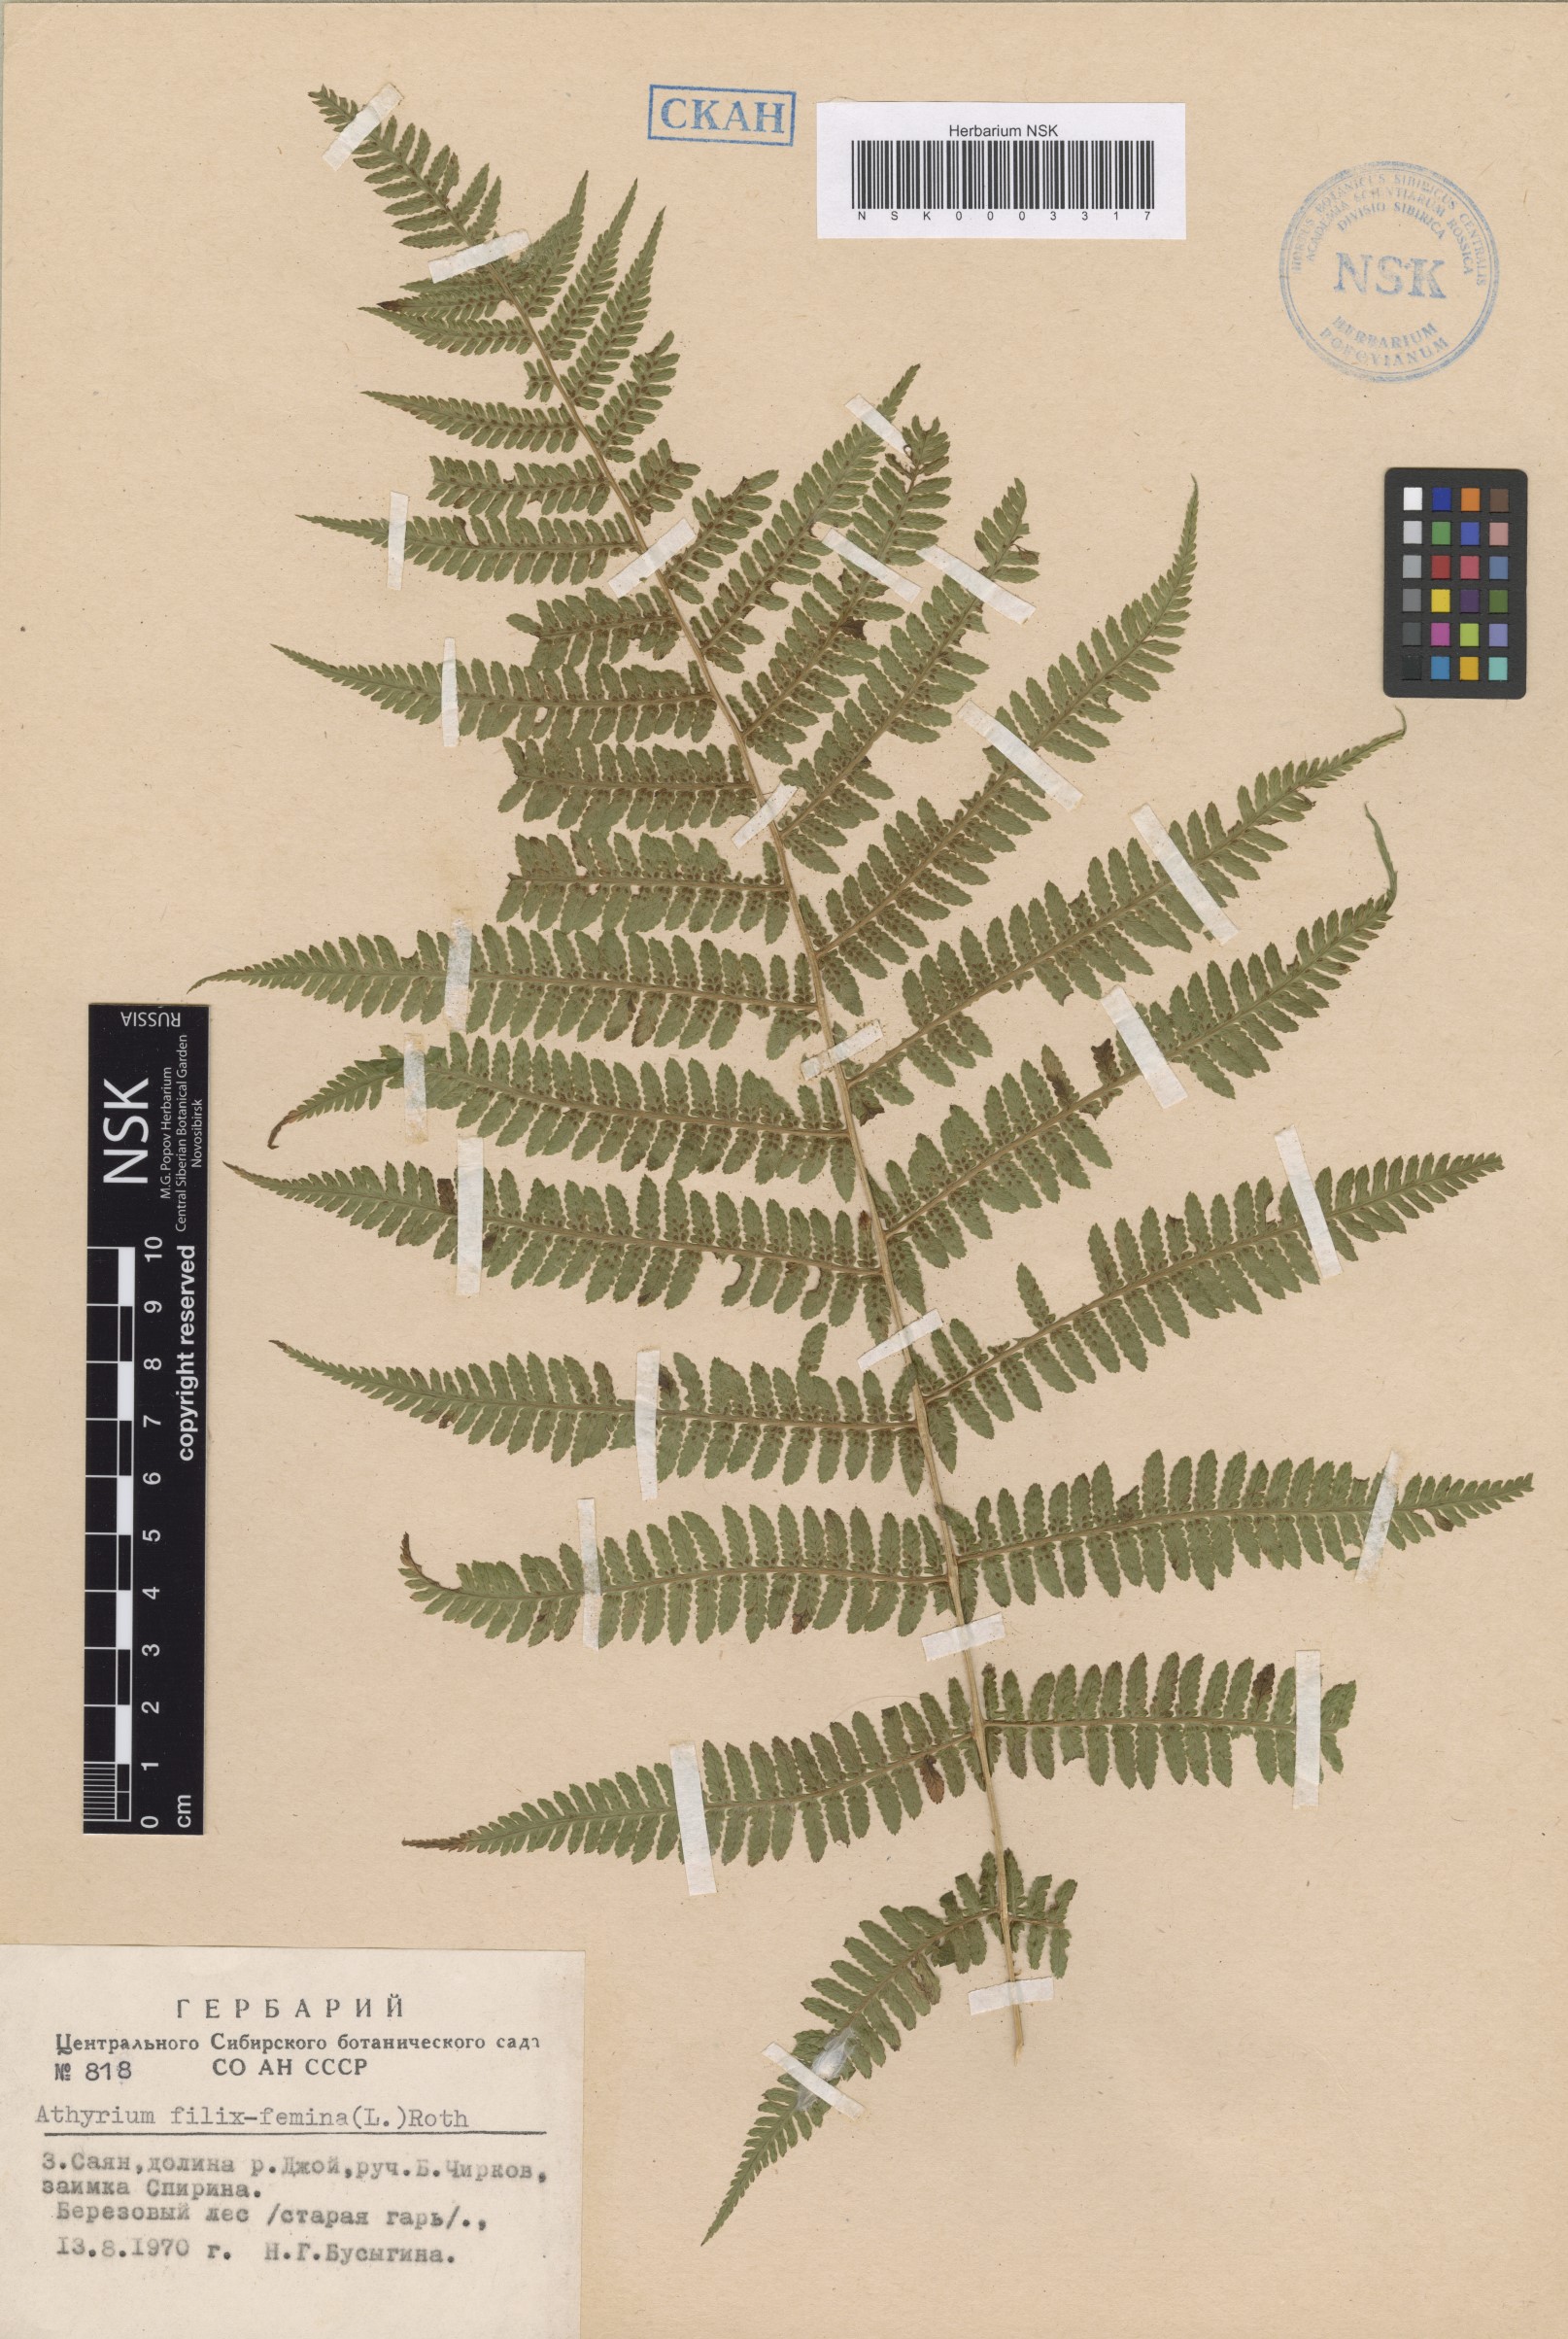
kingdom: Plantae
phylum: Tracheophyta
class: Polypodiopsida
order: Polypodiales
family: Athyriaceae
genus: Athyrium
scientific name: Athyrium filix-femina
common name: Lady fern
